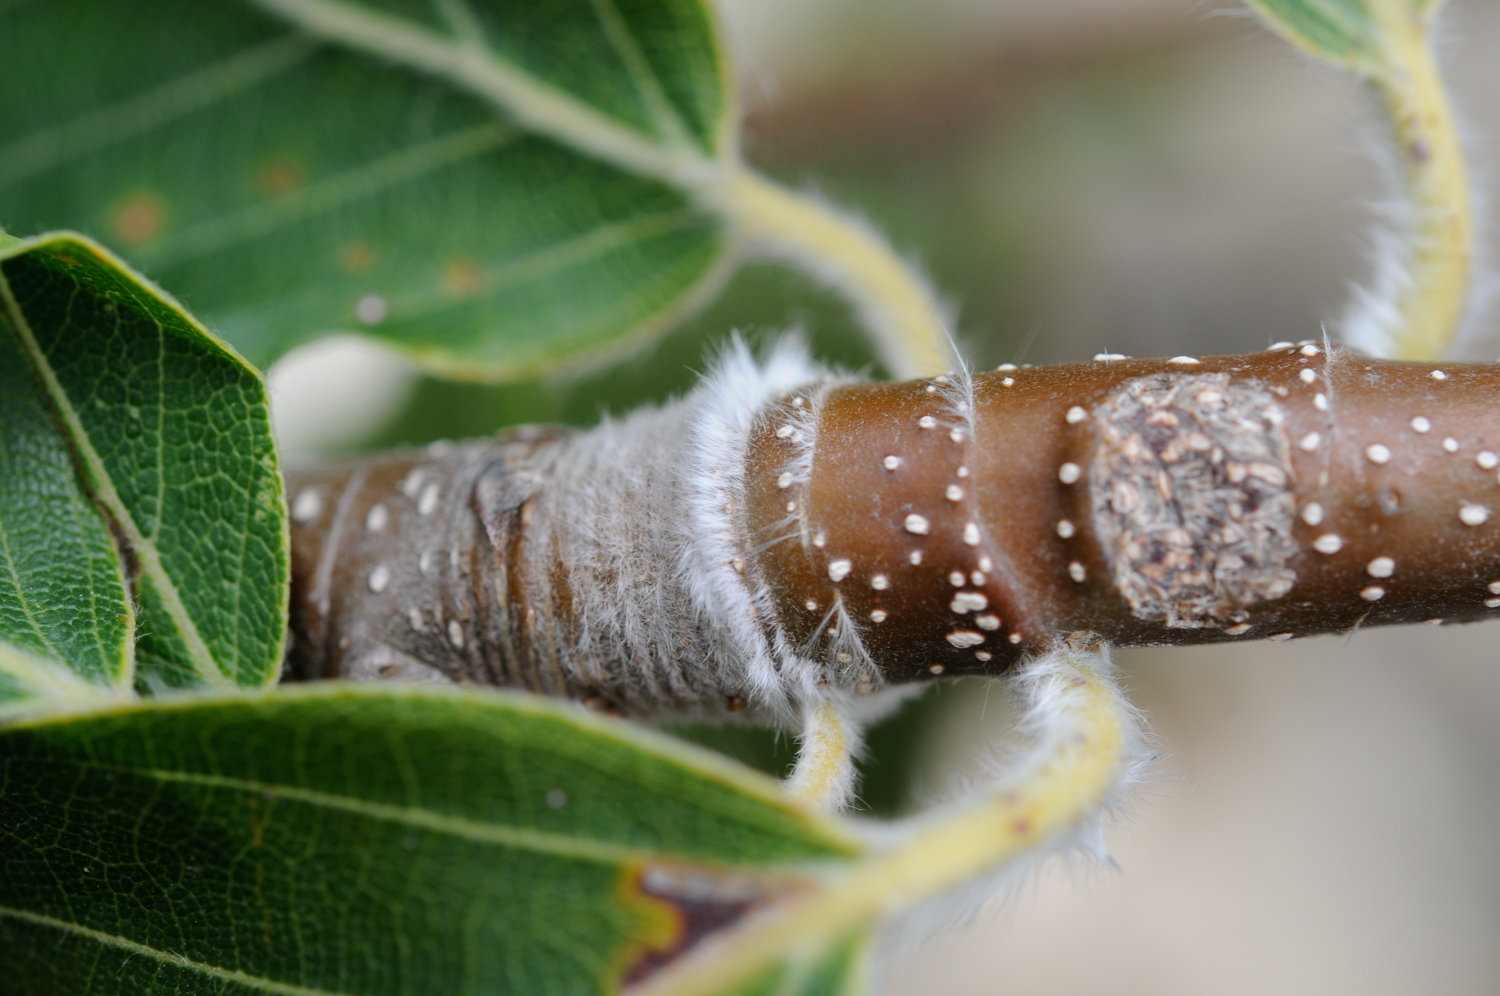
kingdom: Plantae
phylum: Tracheophyta
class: Magnoliopsida
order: Fagales
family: Fagaceae
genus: Fagus
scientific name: Fagus orientalis
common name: Oriental beech
